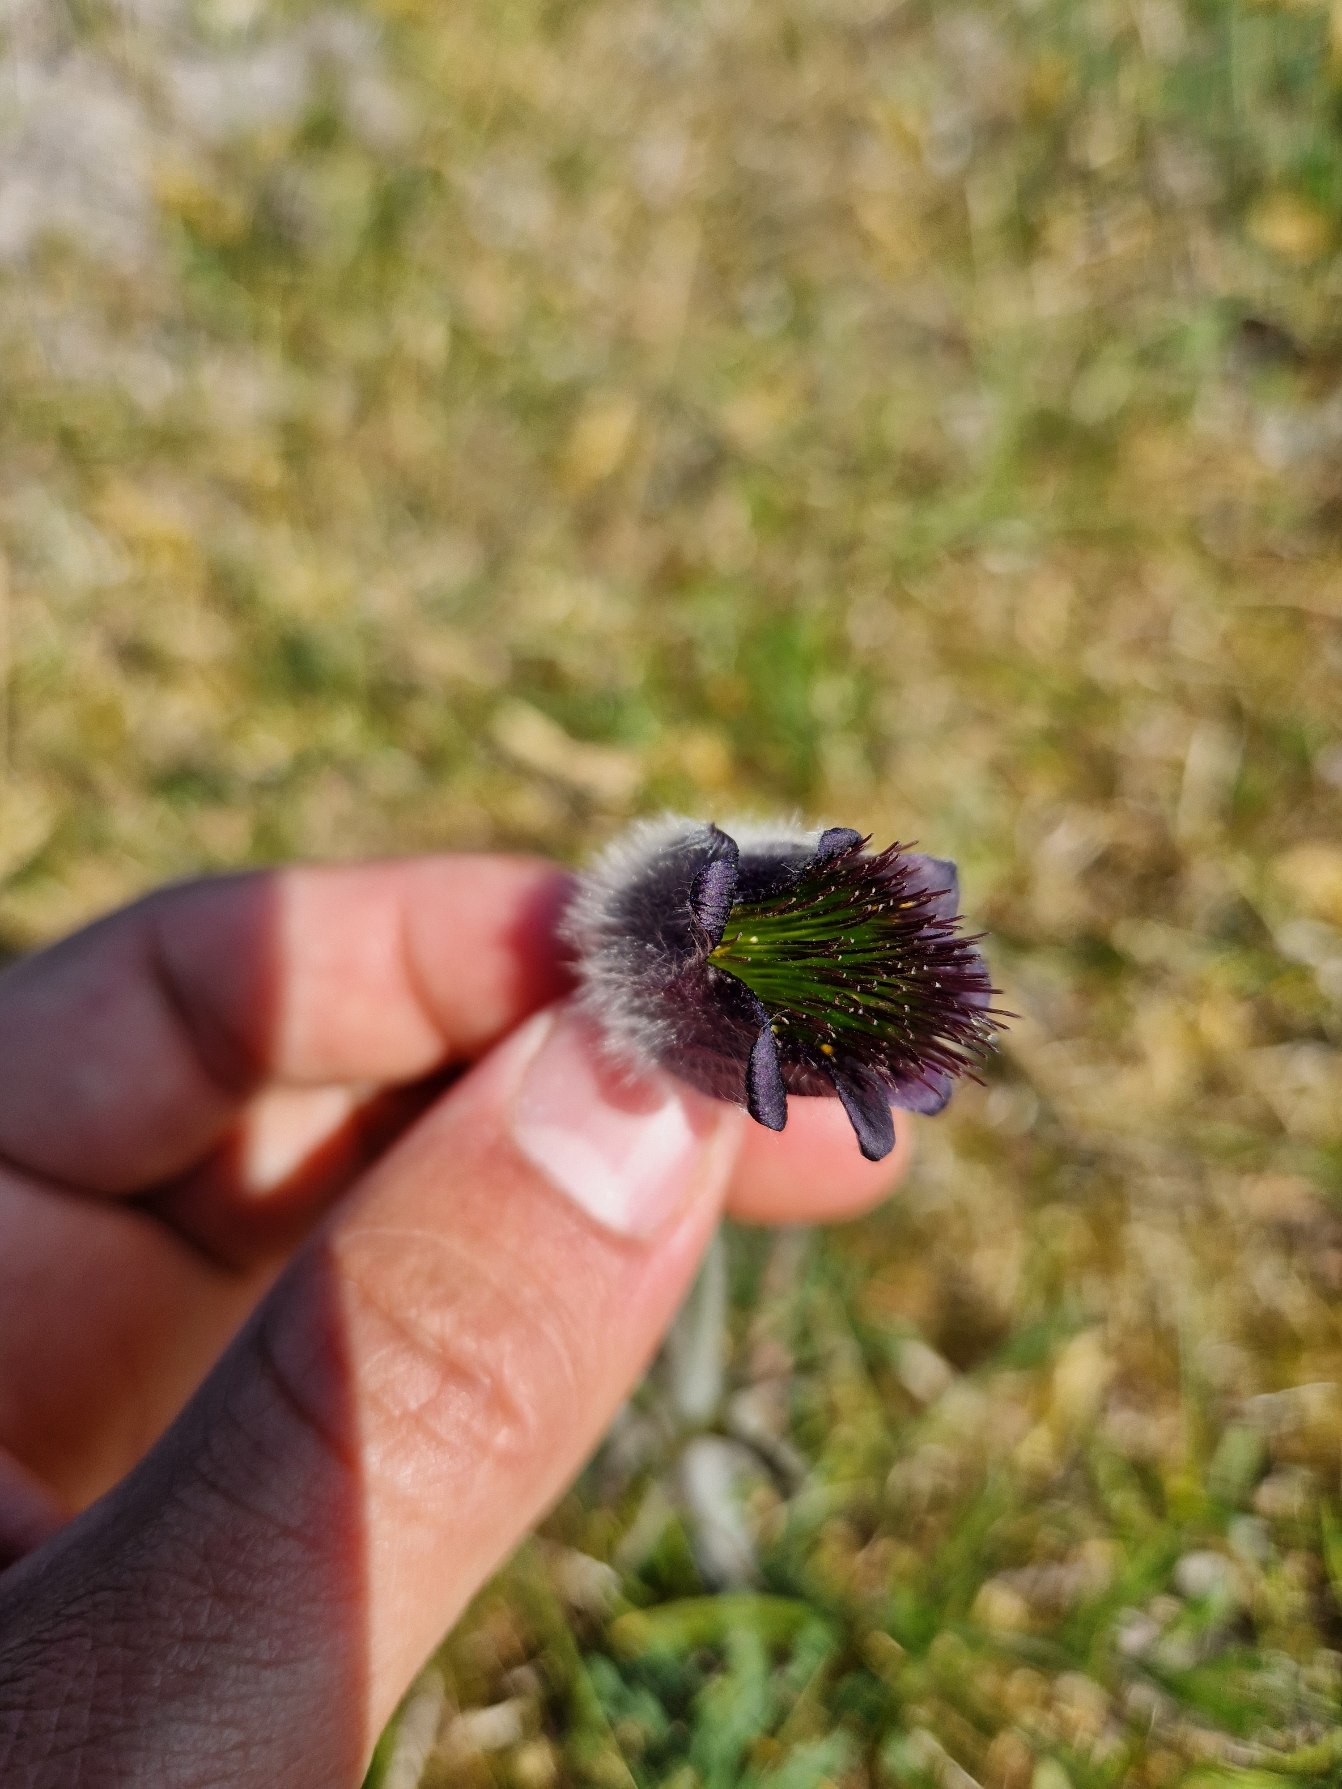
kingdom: Plantae
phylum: Tracheophyta
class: Magnoliopsida
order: Ranunculales
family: Ranunculaceae
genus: Pulsatilla
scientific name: Pulsatilla pratensis
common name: Nikkende kobjælde
